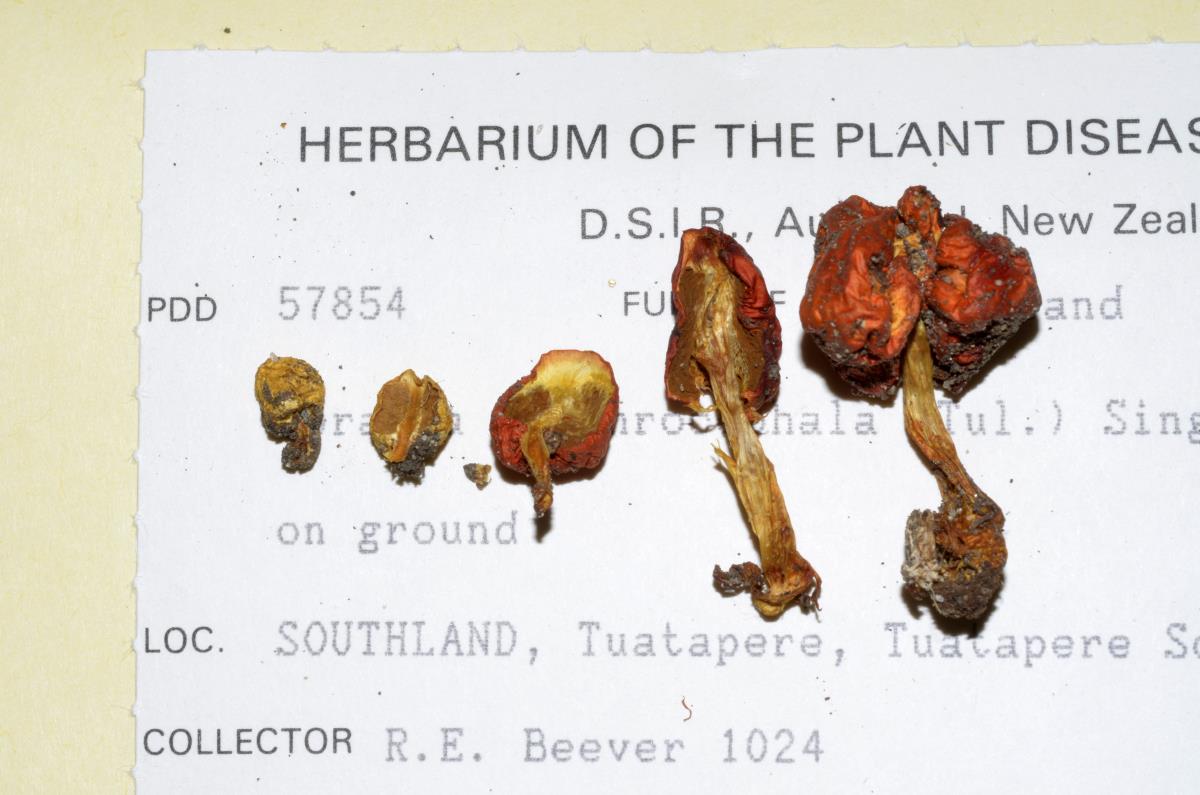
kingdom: Fungi
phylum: Basidiomycota
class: Agaricomycetes
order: Agaricales
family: Strophariaceae
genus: Leratiomyces
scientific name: Leratiomyces erythrocephalus
